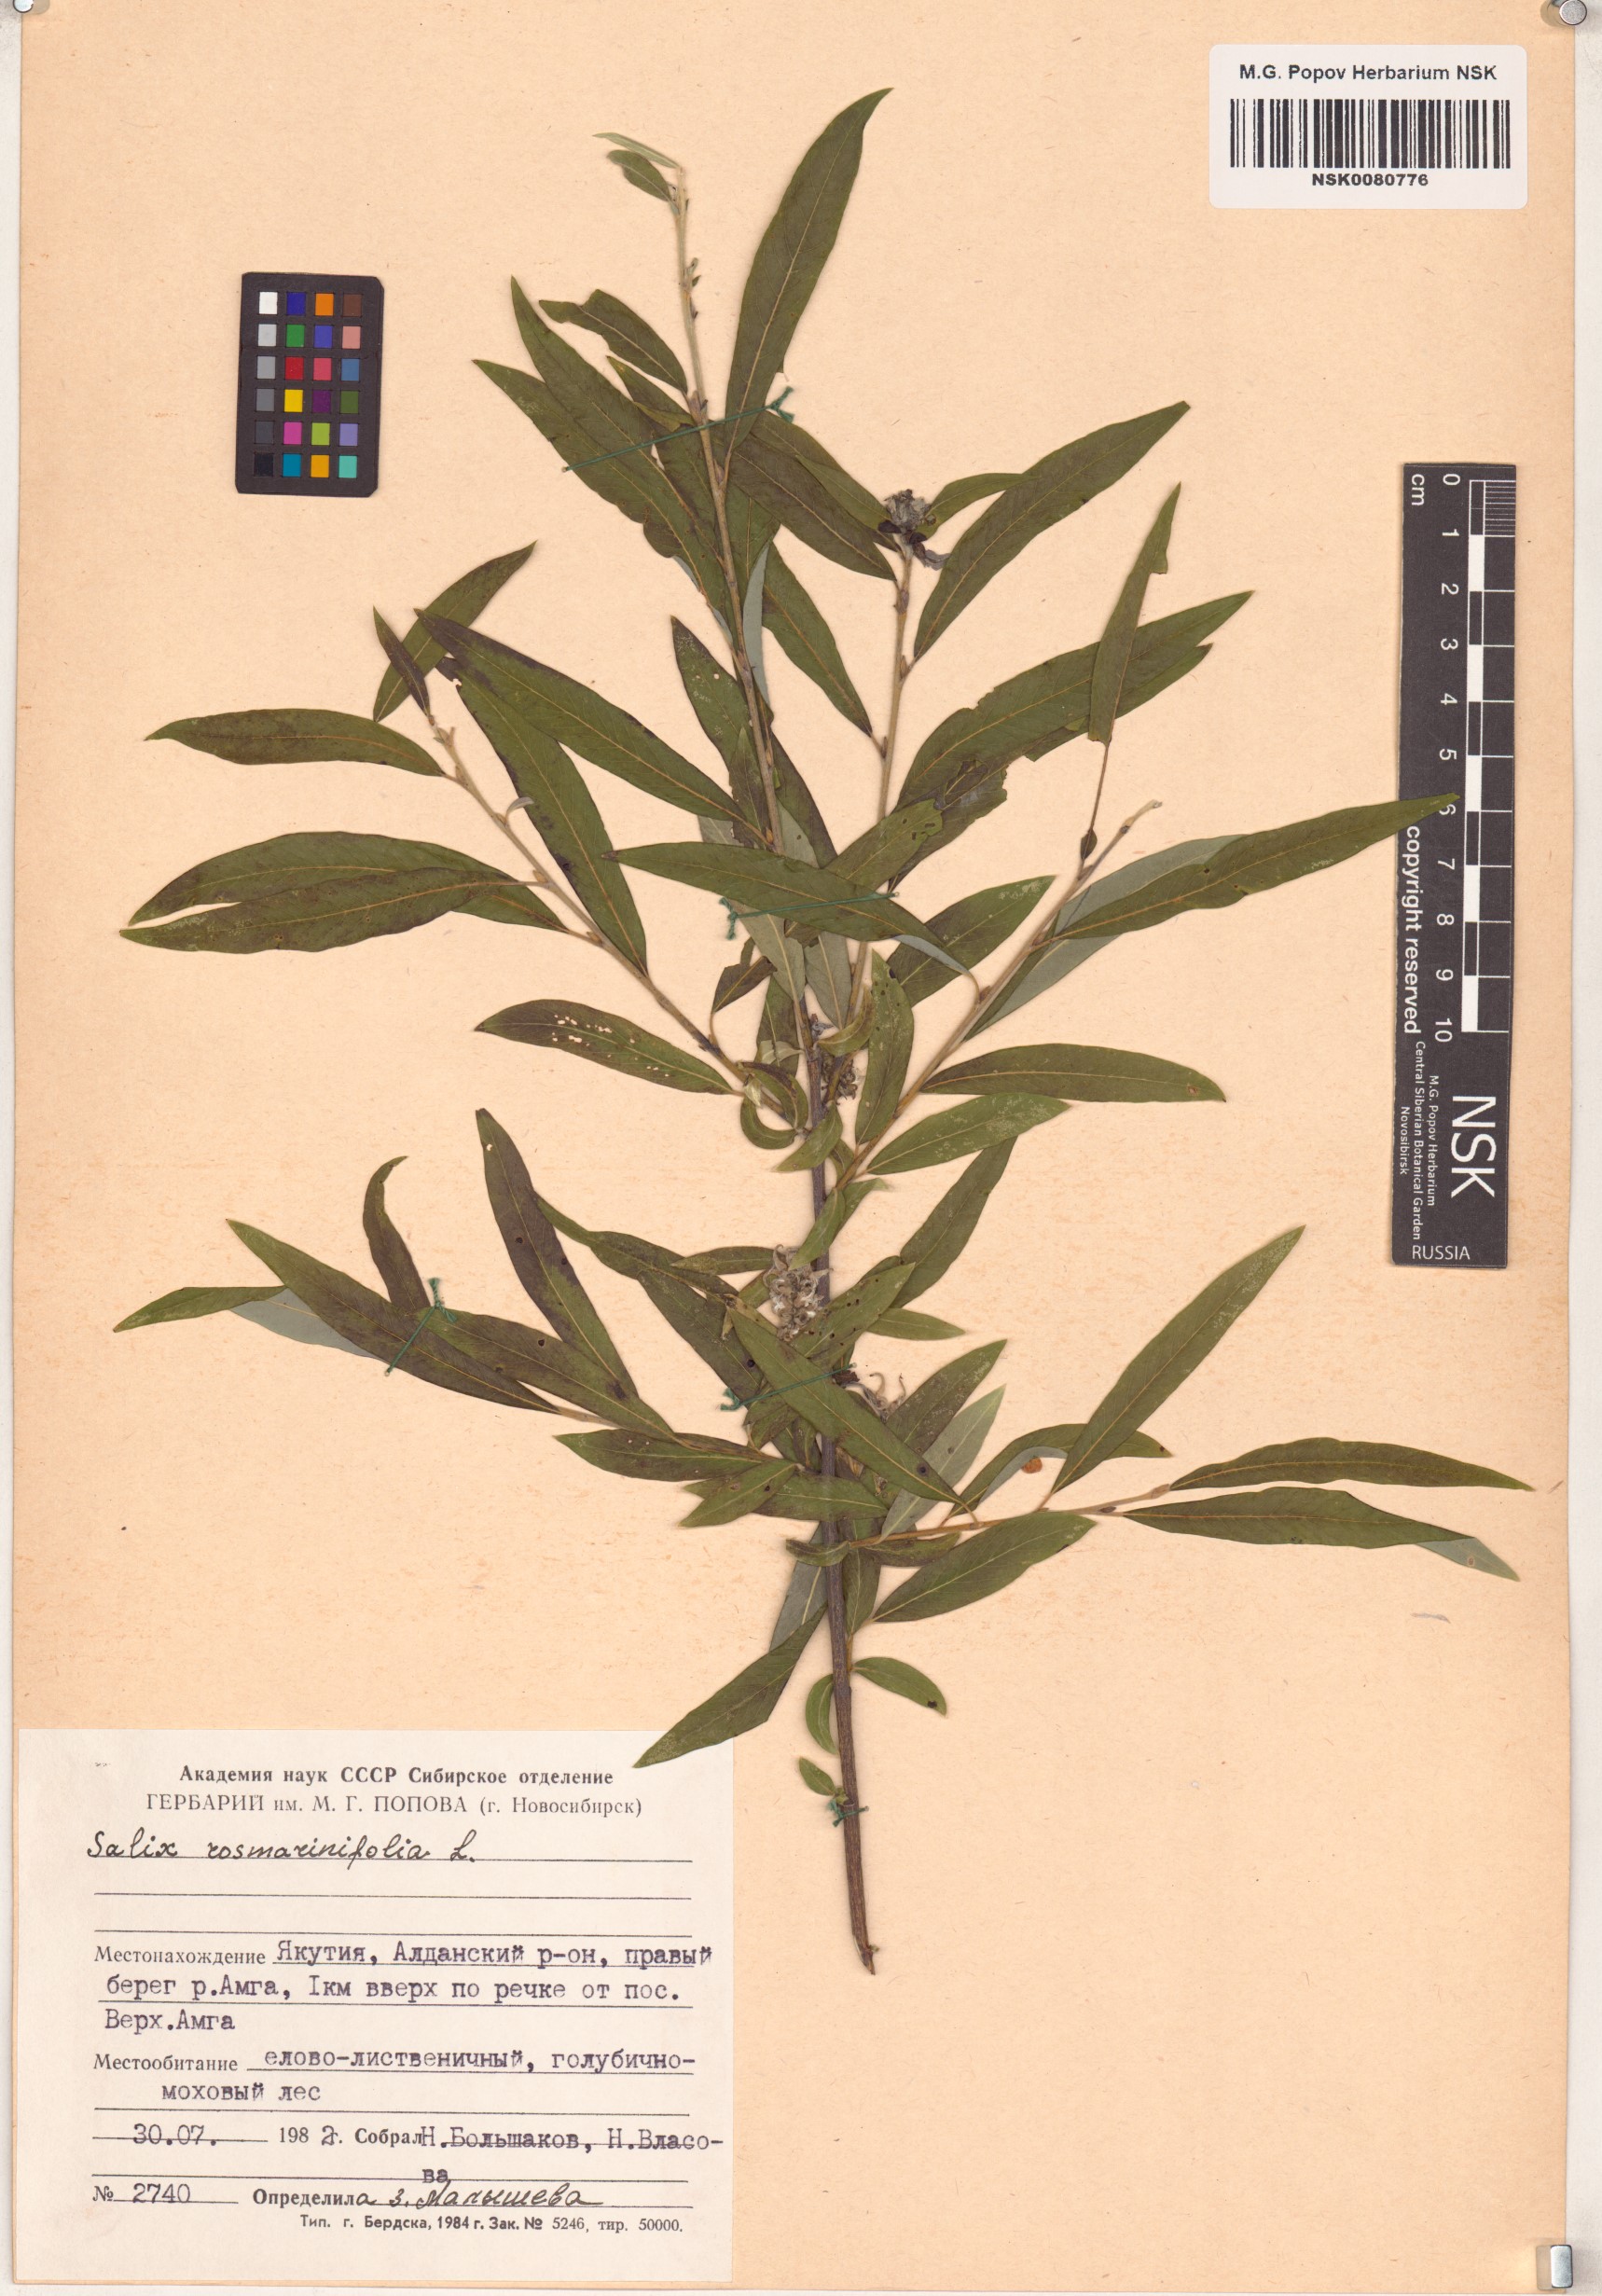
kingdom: Plantae
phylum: Tracheophyta
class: Magnoliopsida
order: Malpighiales
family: Salicaceae
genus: Salix
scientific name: Salix rosmarinifolia
